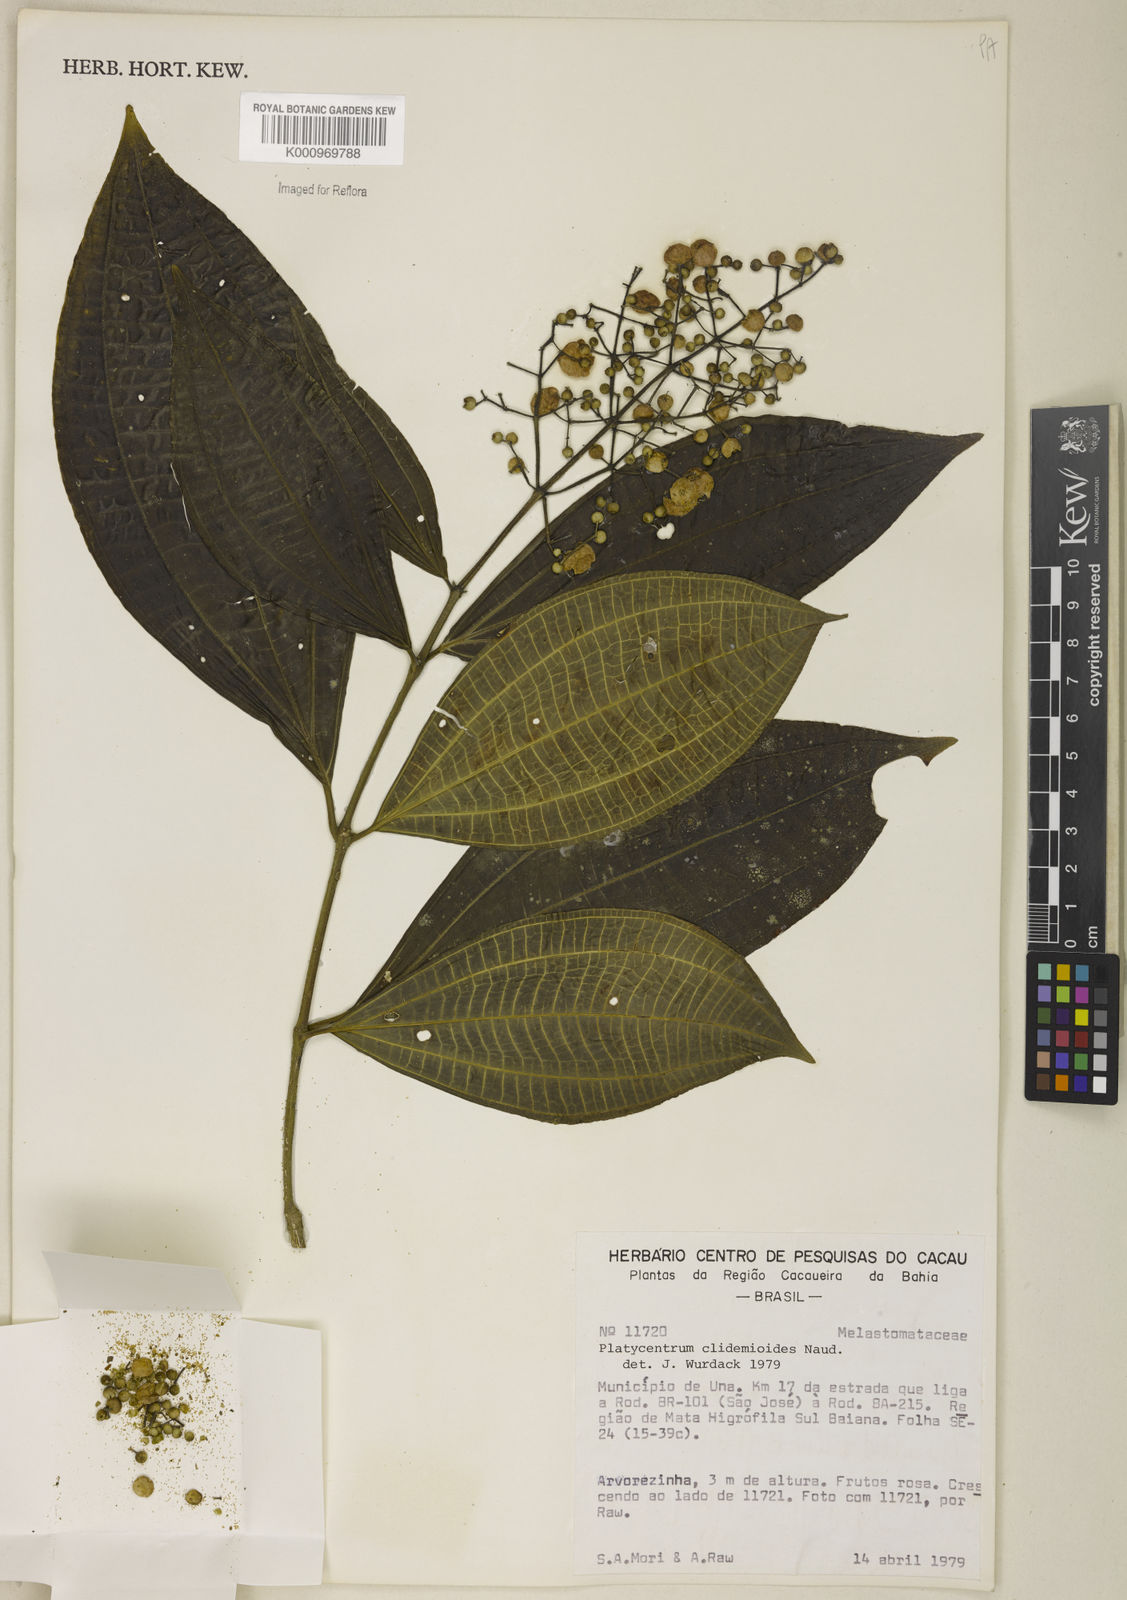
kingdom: Plantae
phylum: Tracheophyta
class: Magnoliopsida
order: Myrtales
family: Melastomataceae
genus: Miconia
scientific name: Miconia stenopetala
